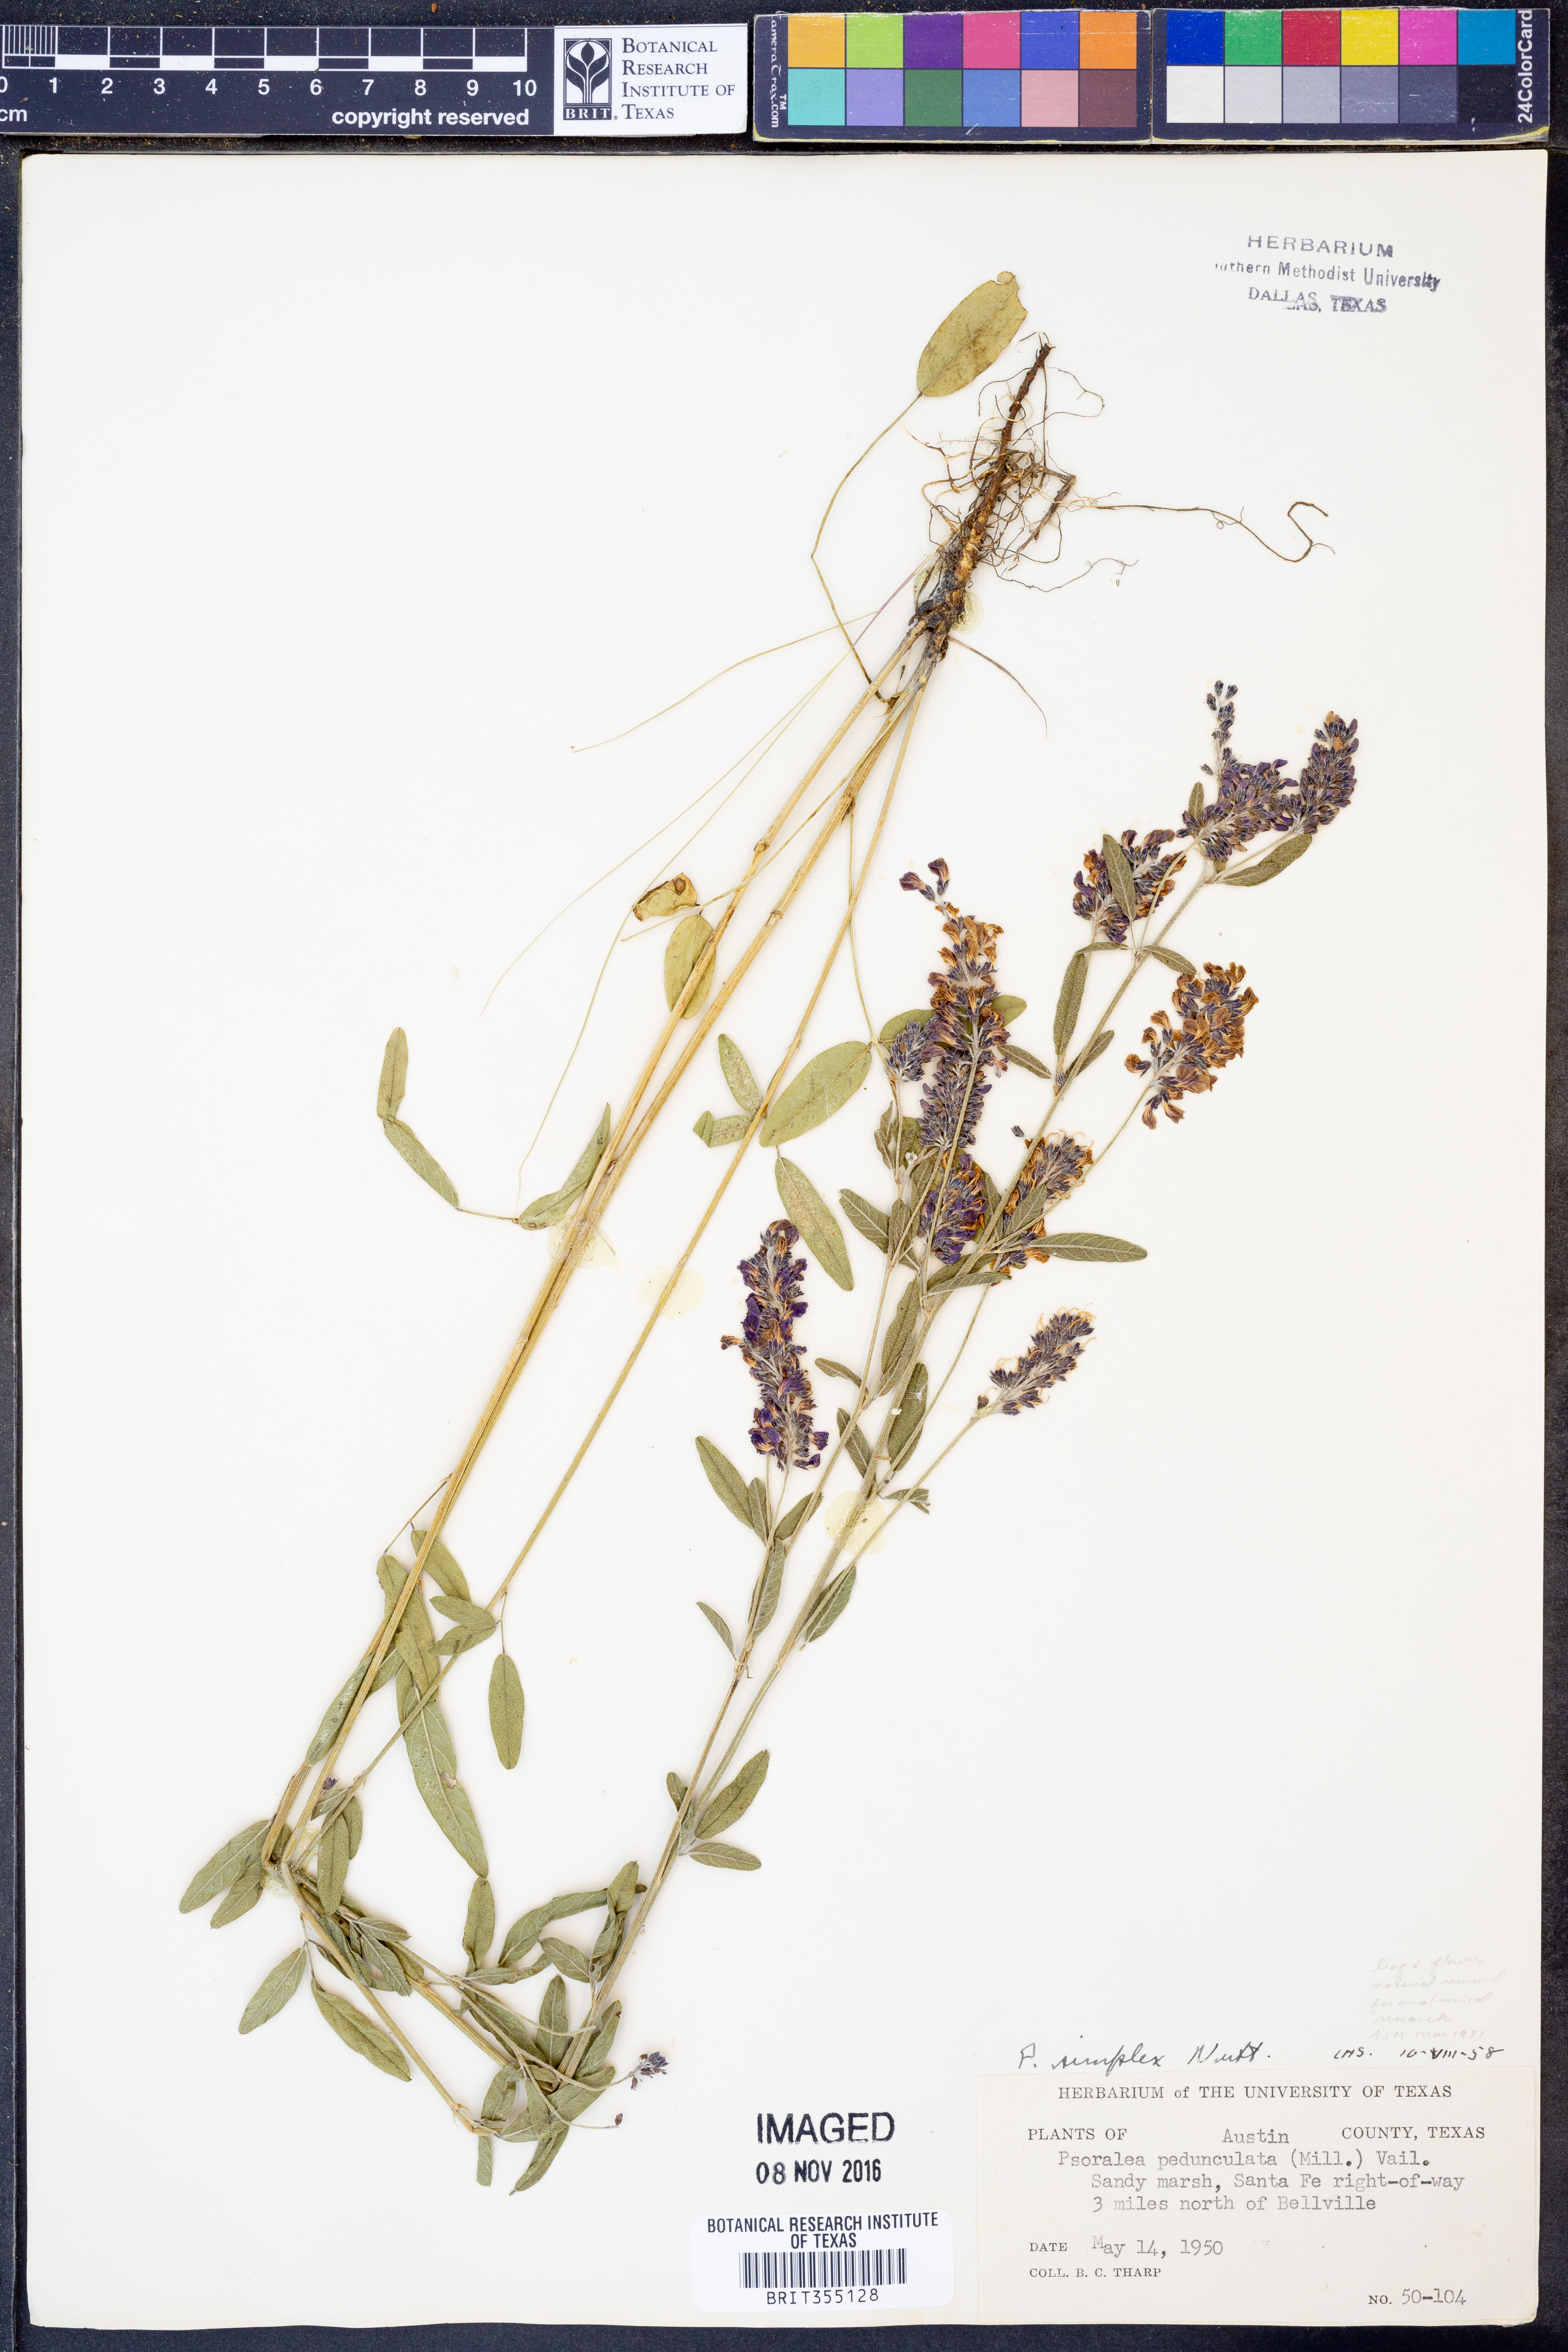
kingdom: Plantae
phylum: Tracheophyta
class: Magnoliopsida
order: Fabales
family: Fabaceae
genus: Orbexilum
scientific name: Orbexilum simplex
